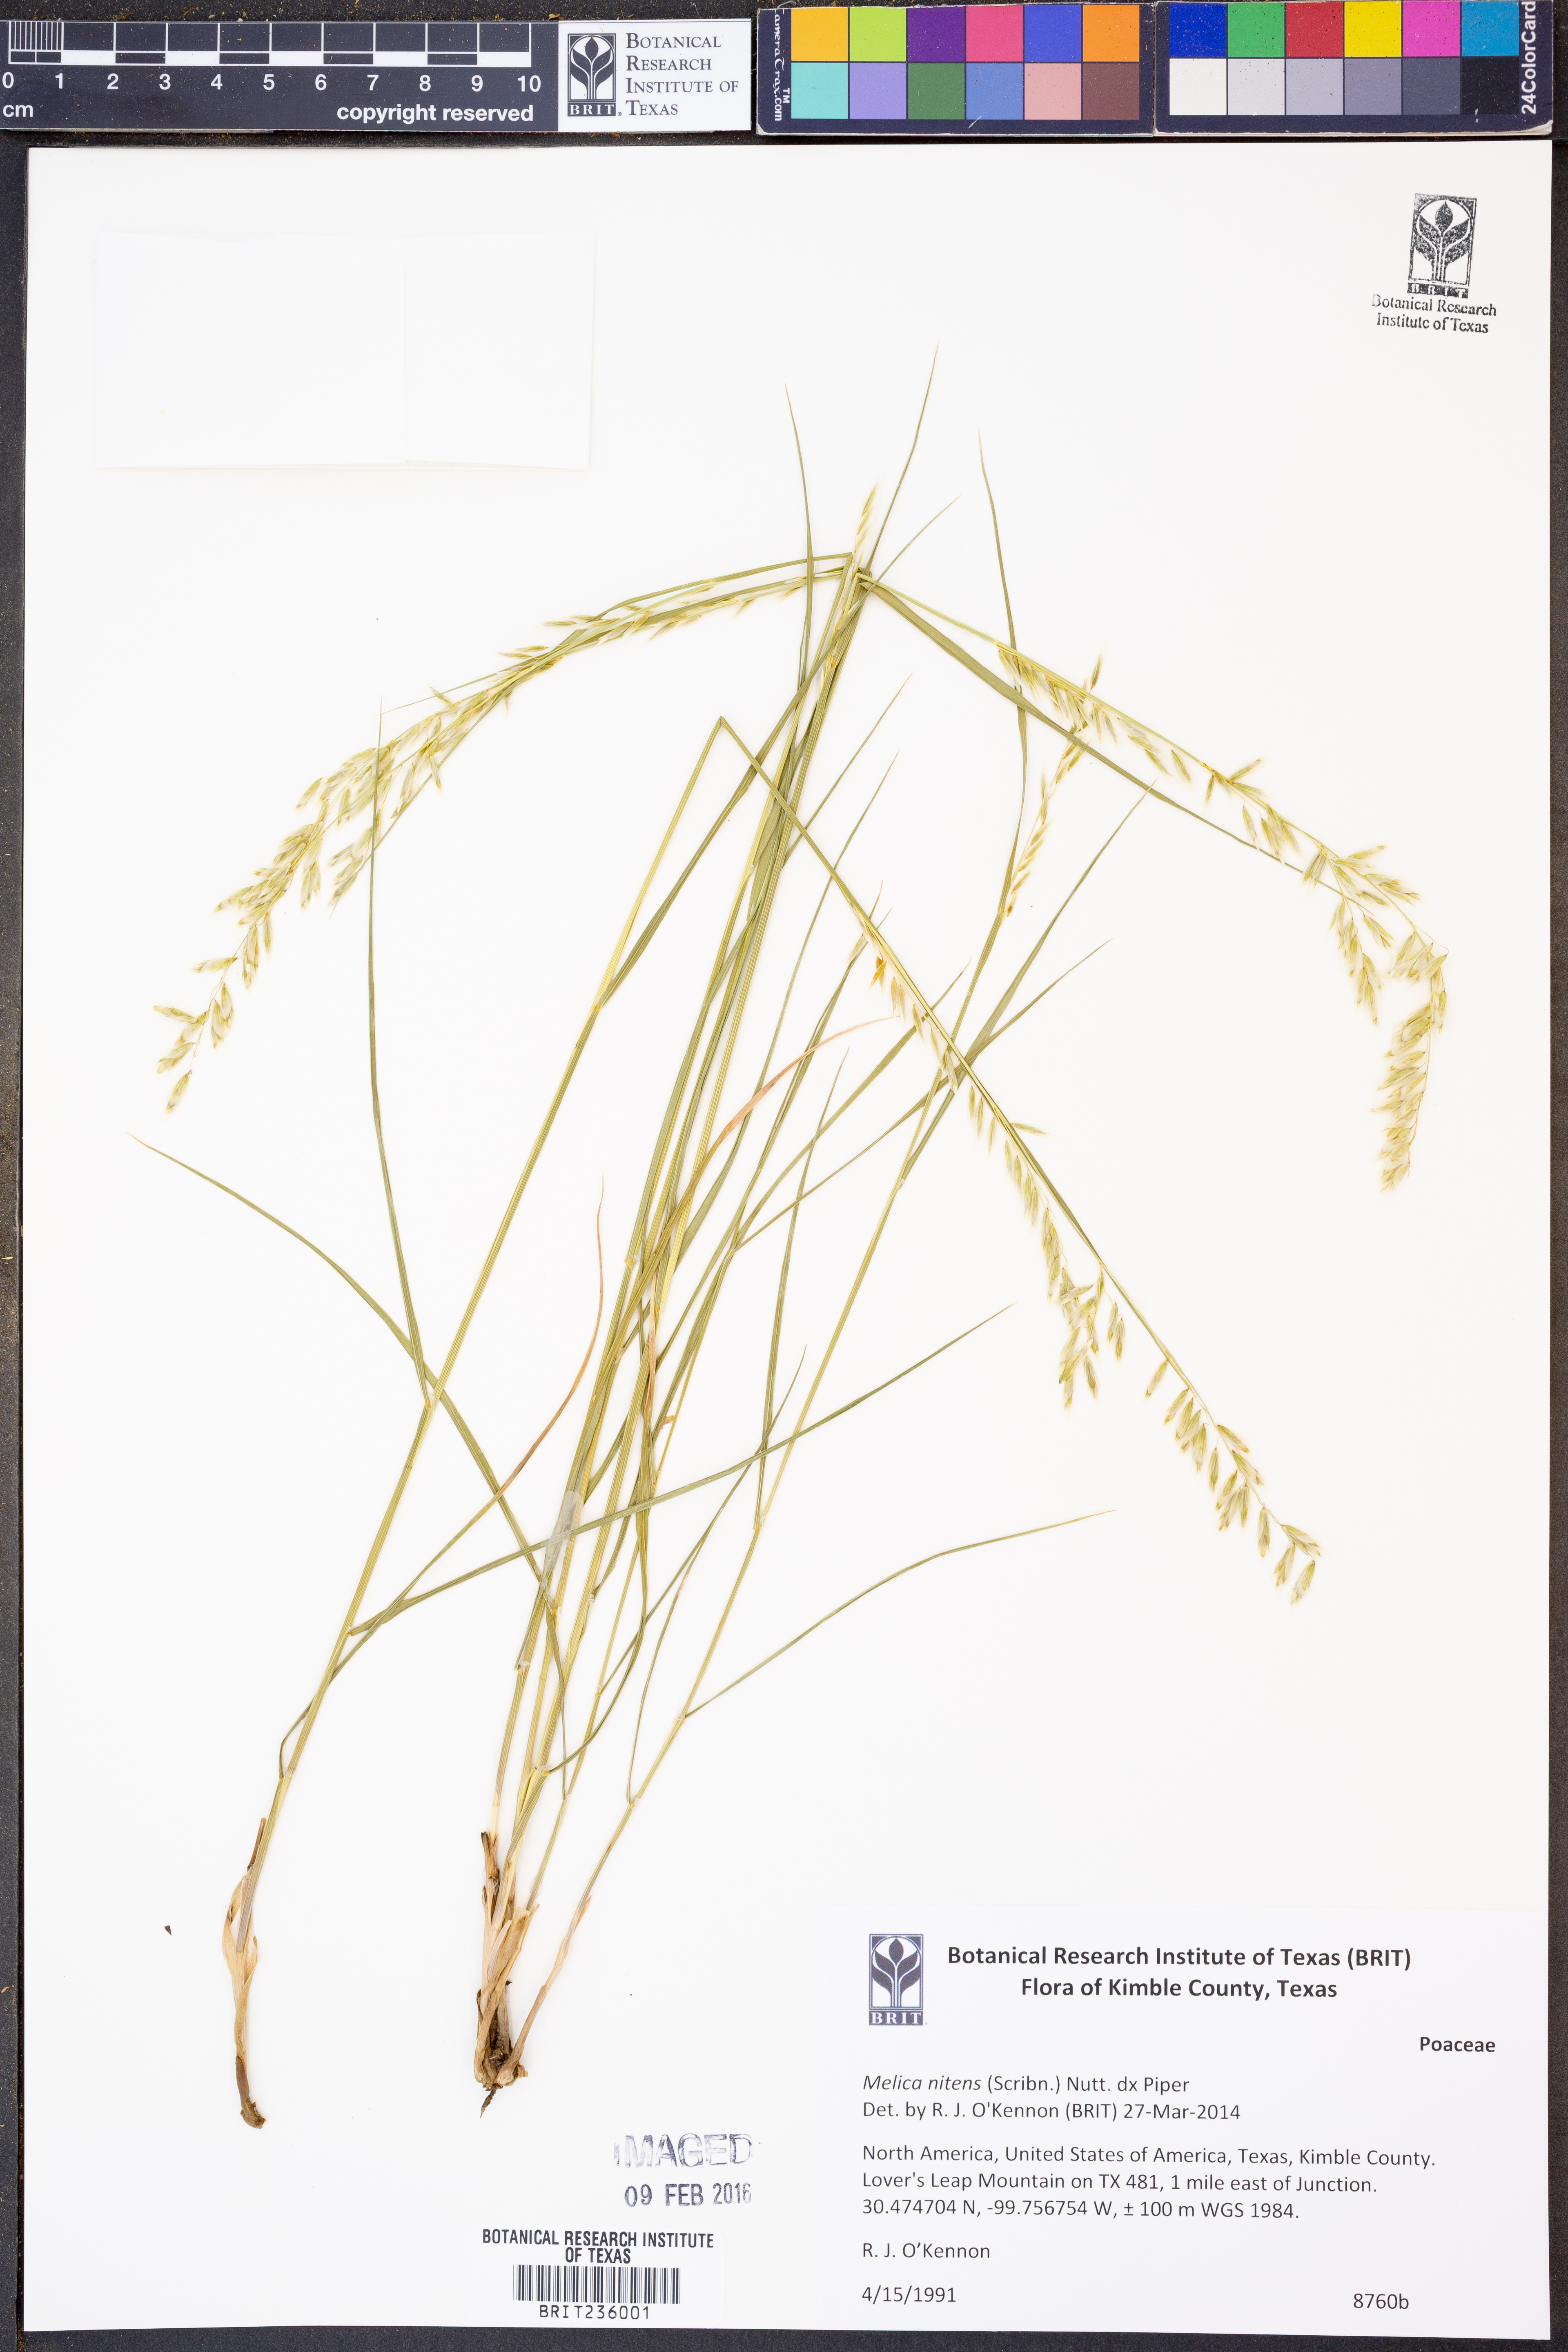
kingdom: Plantae
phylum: Tracheophyta
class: Liliopsida
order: Poales
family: Poaceae
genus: Melica
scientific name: Melica nitens
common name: Three-flower melic
